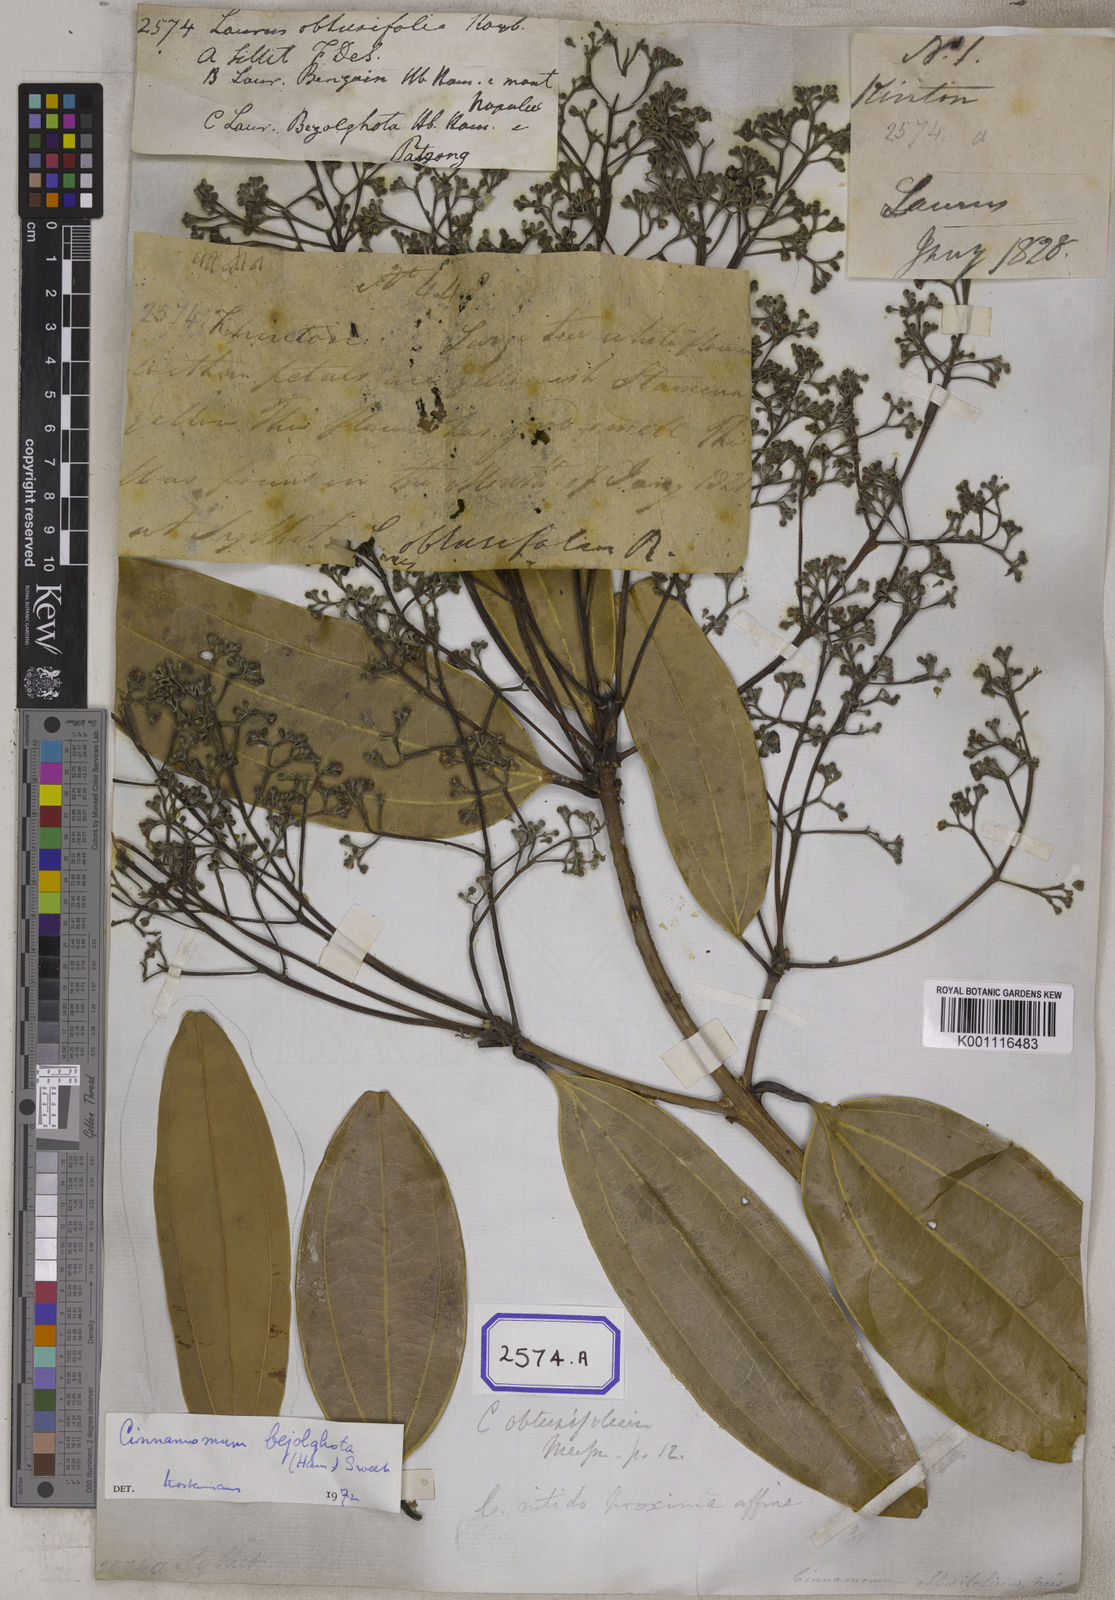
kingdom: Plantae
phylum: Tracheophyta
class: Magnoliopsida
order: Laurales
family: Lauraceae
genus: Cinnamomum
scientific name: Cinnamomum bejolghota
